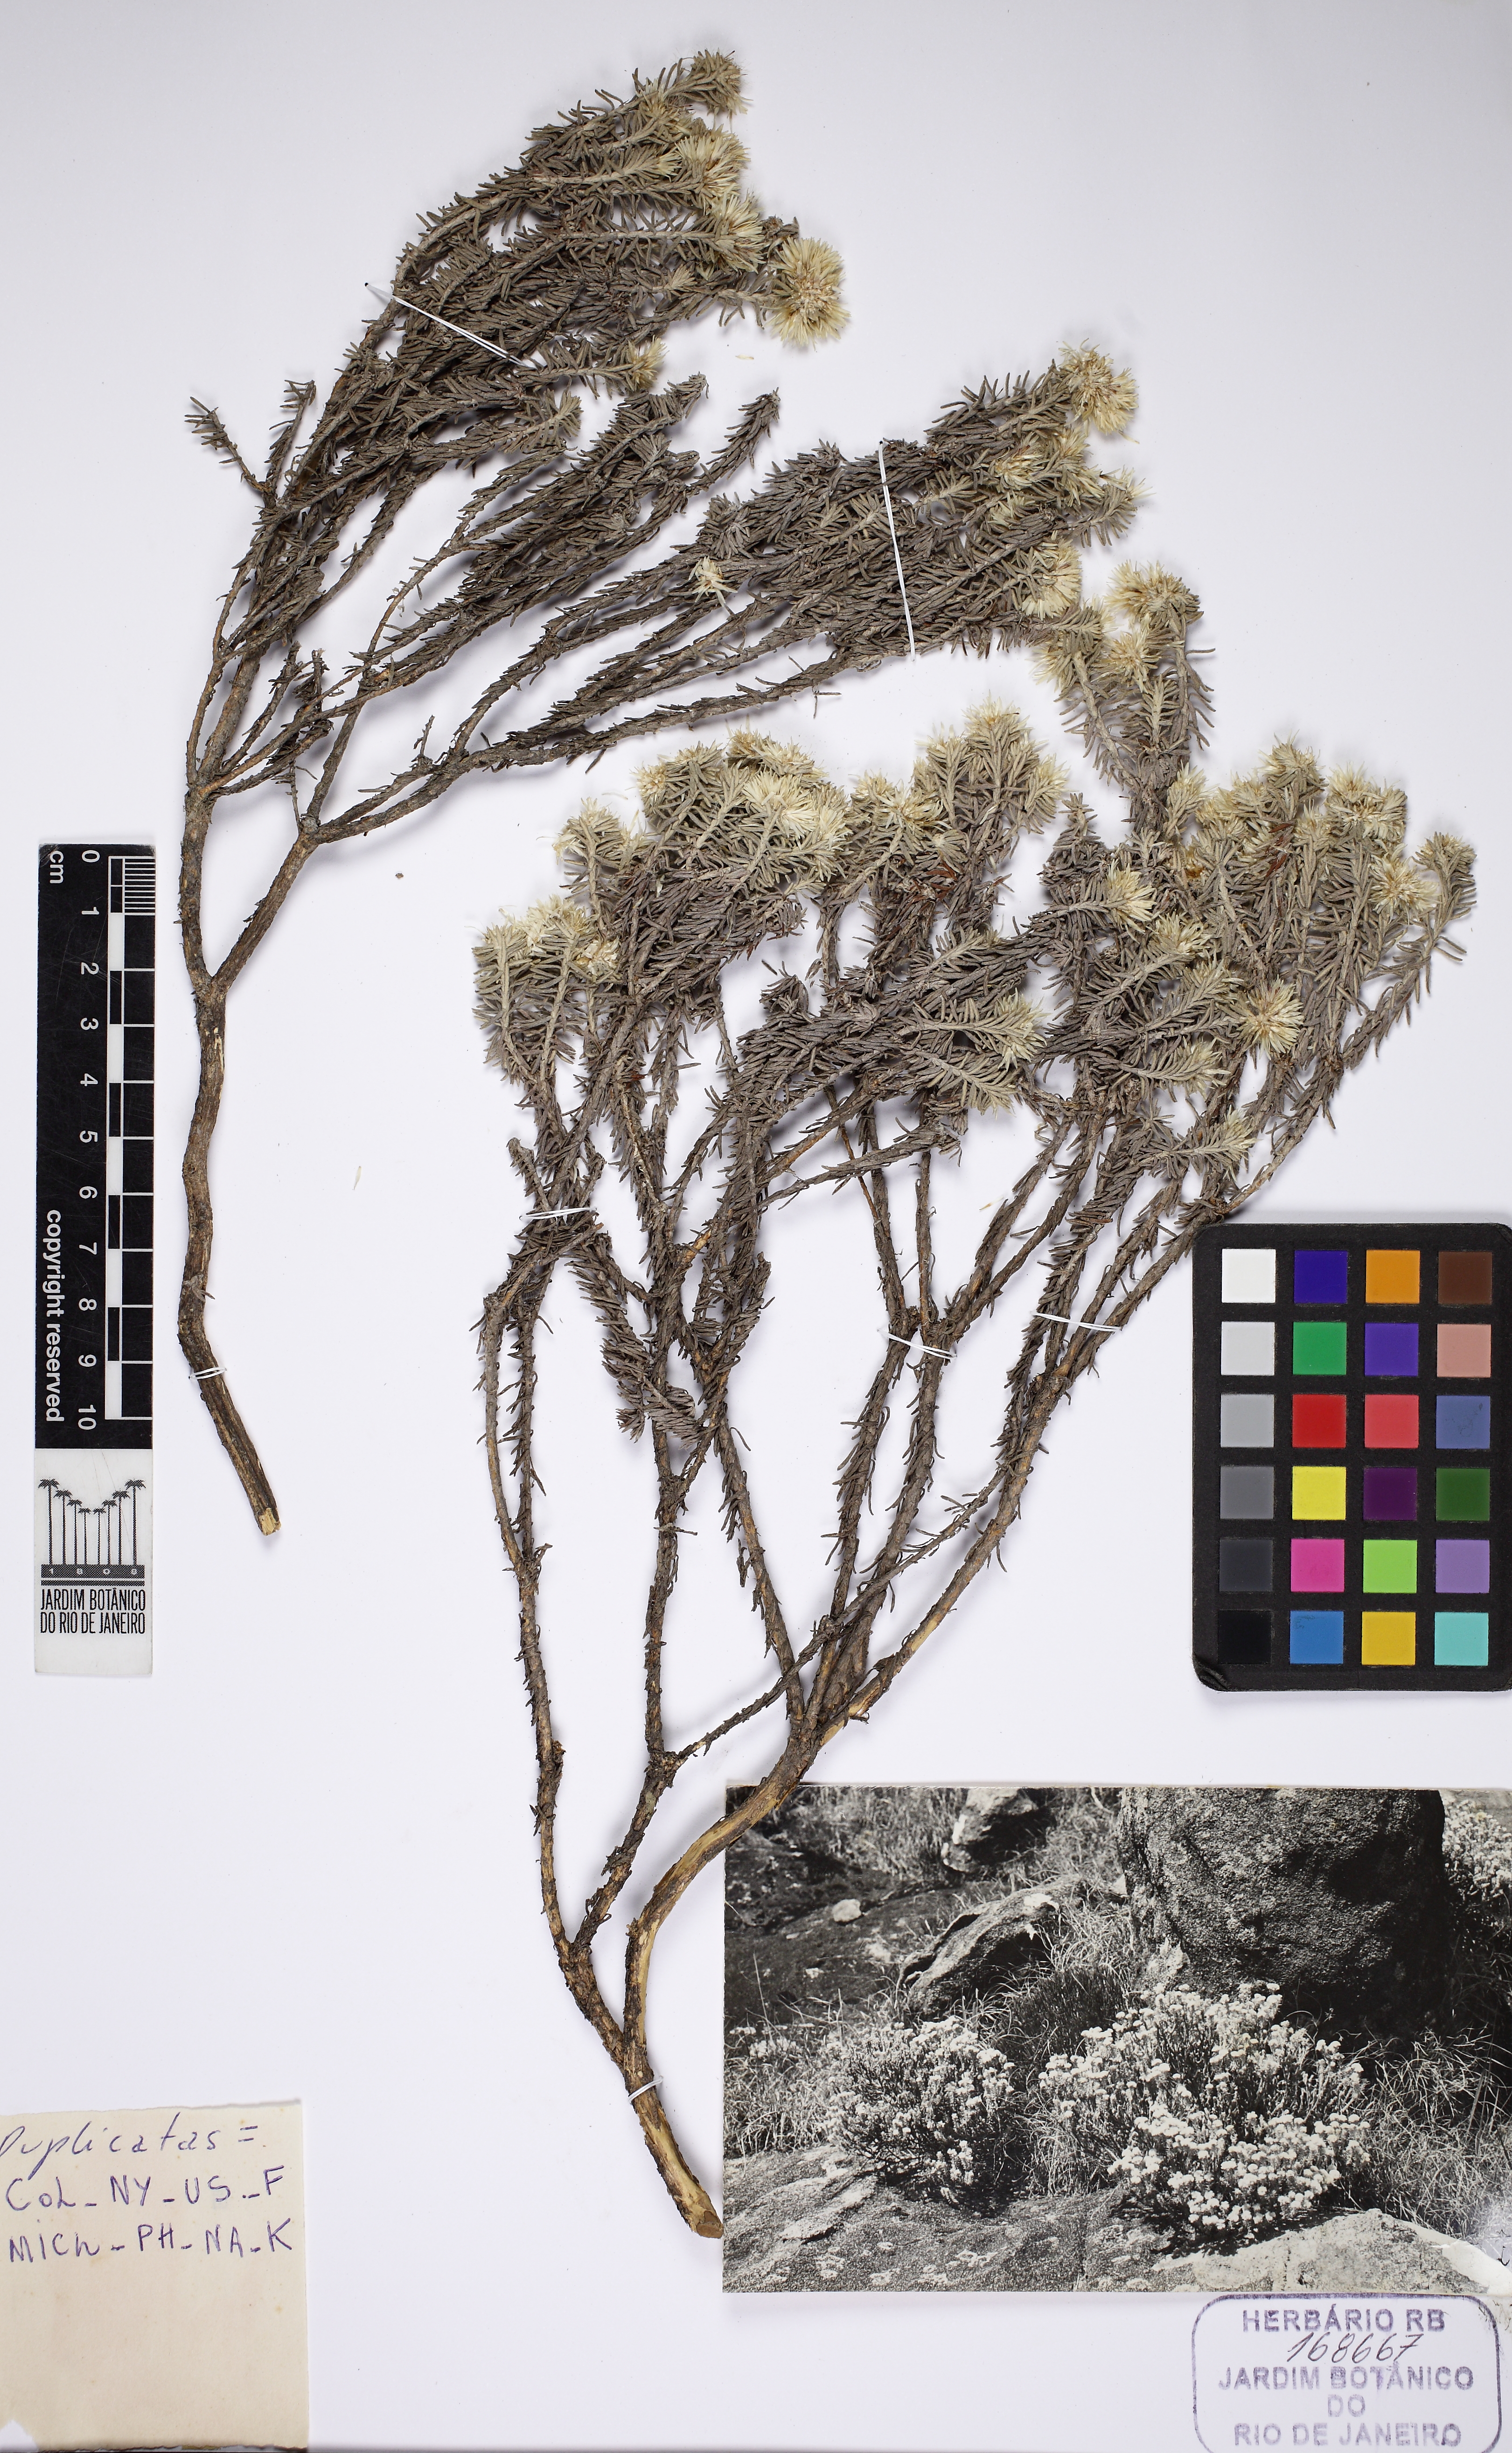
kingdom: Plantae
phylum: Tracheophyta
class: Magnoliopsida
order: Asterales
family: Asteraceae
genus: Chionolaena
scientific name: Chionolaena capitata
